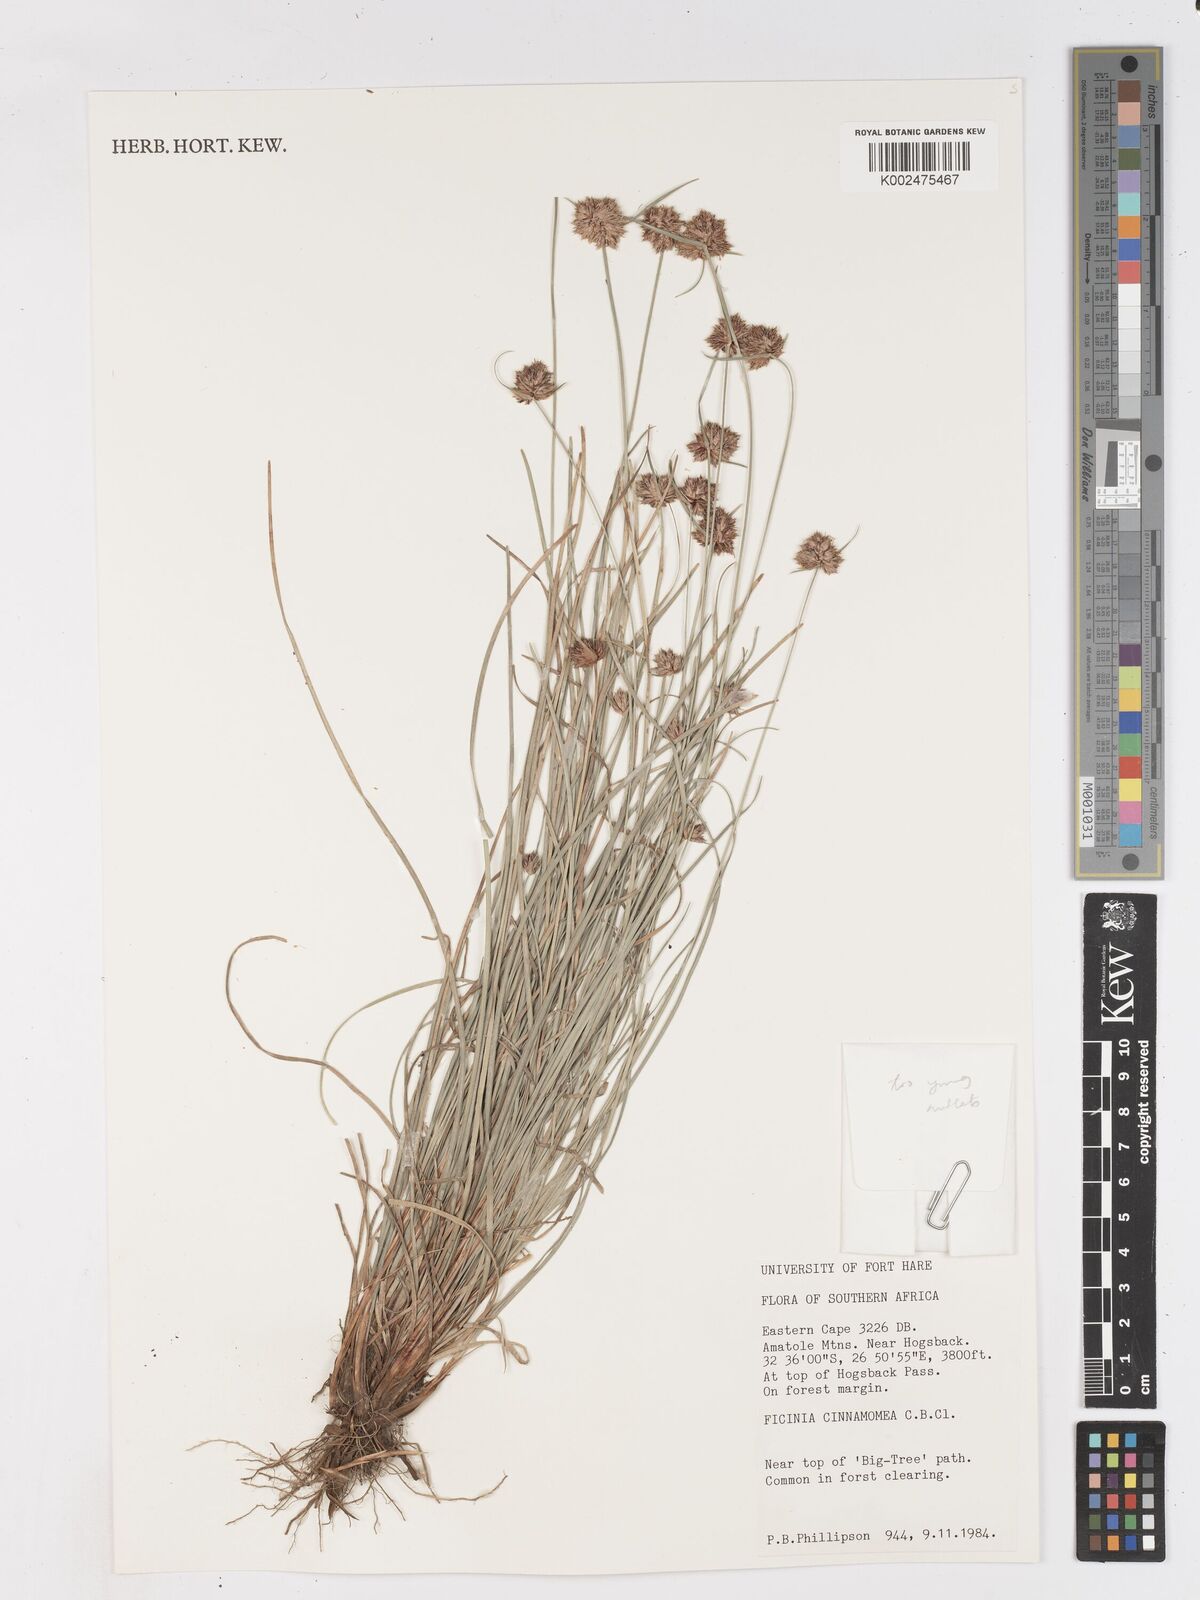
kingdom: Plantae
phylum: Tracheophyta
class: Liliopsida
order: Poales
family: Cyperaceae
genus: Ficinia
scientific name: Ficinia cinnamomea
